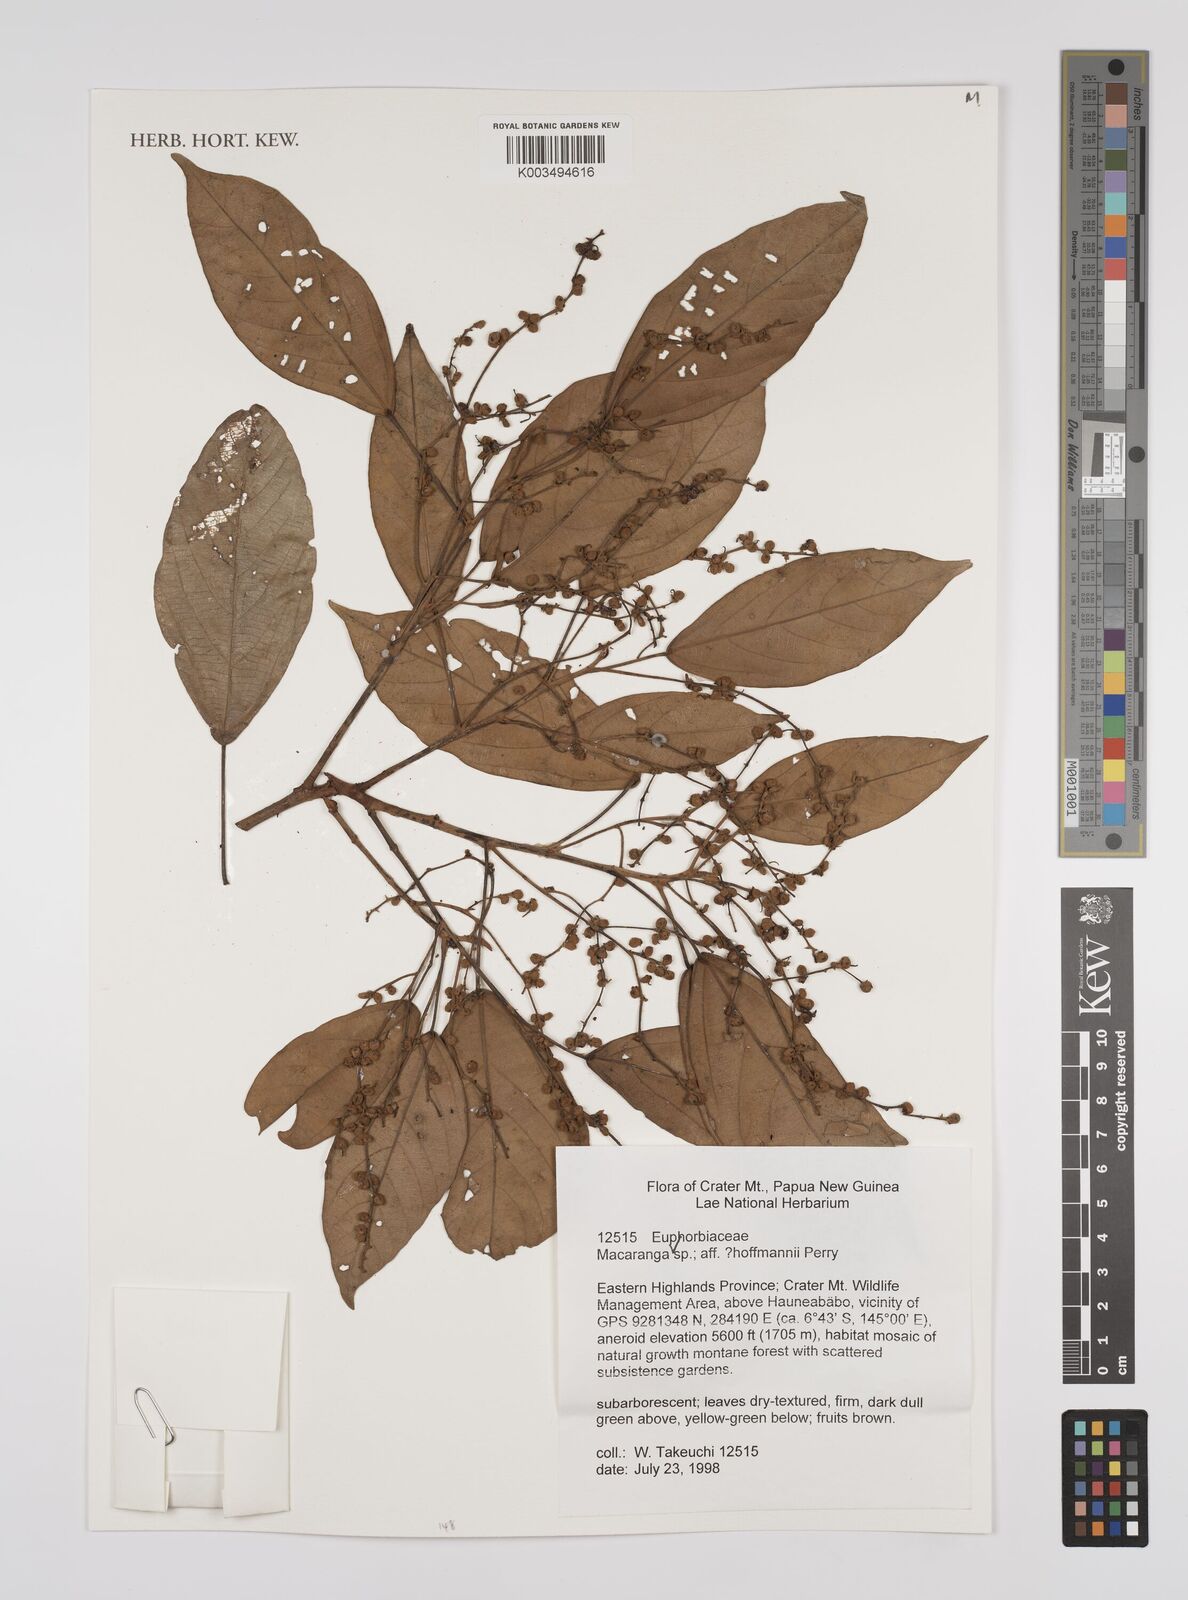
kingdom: Plantae
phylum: Tracheophyta
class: Magnoliopsida
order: Malpighiales
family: Euphorbiaceae
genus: Macaranga
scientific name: Macaranga hoffmannii
